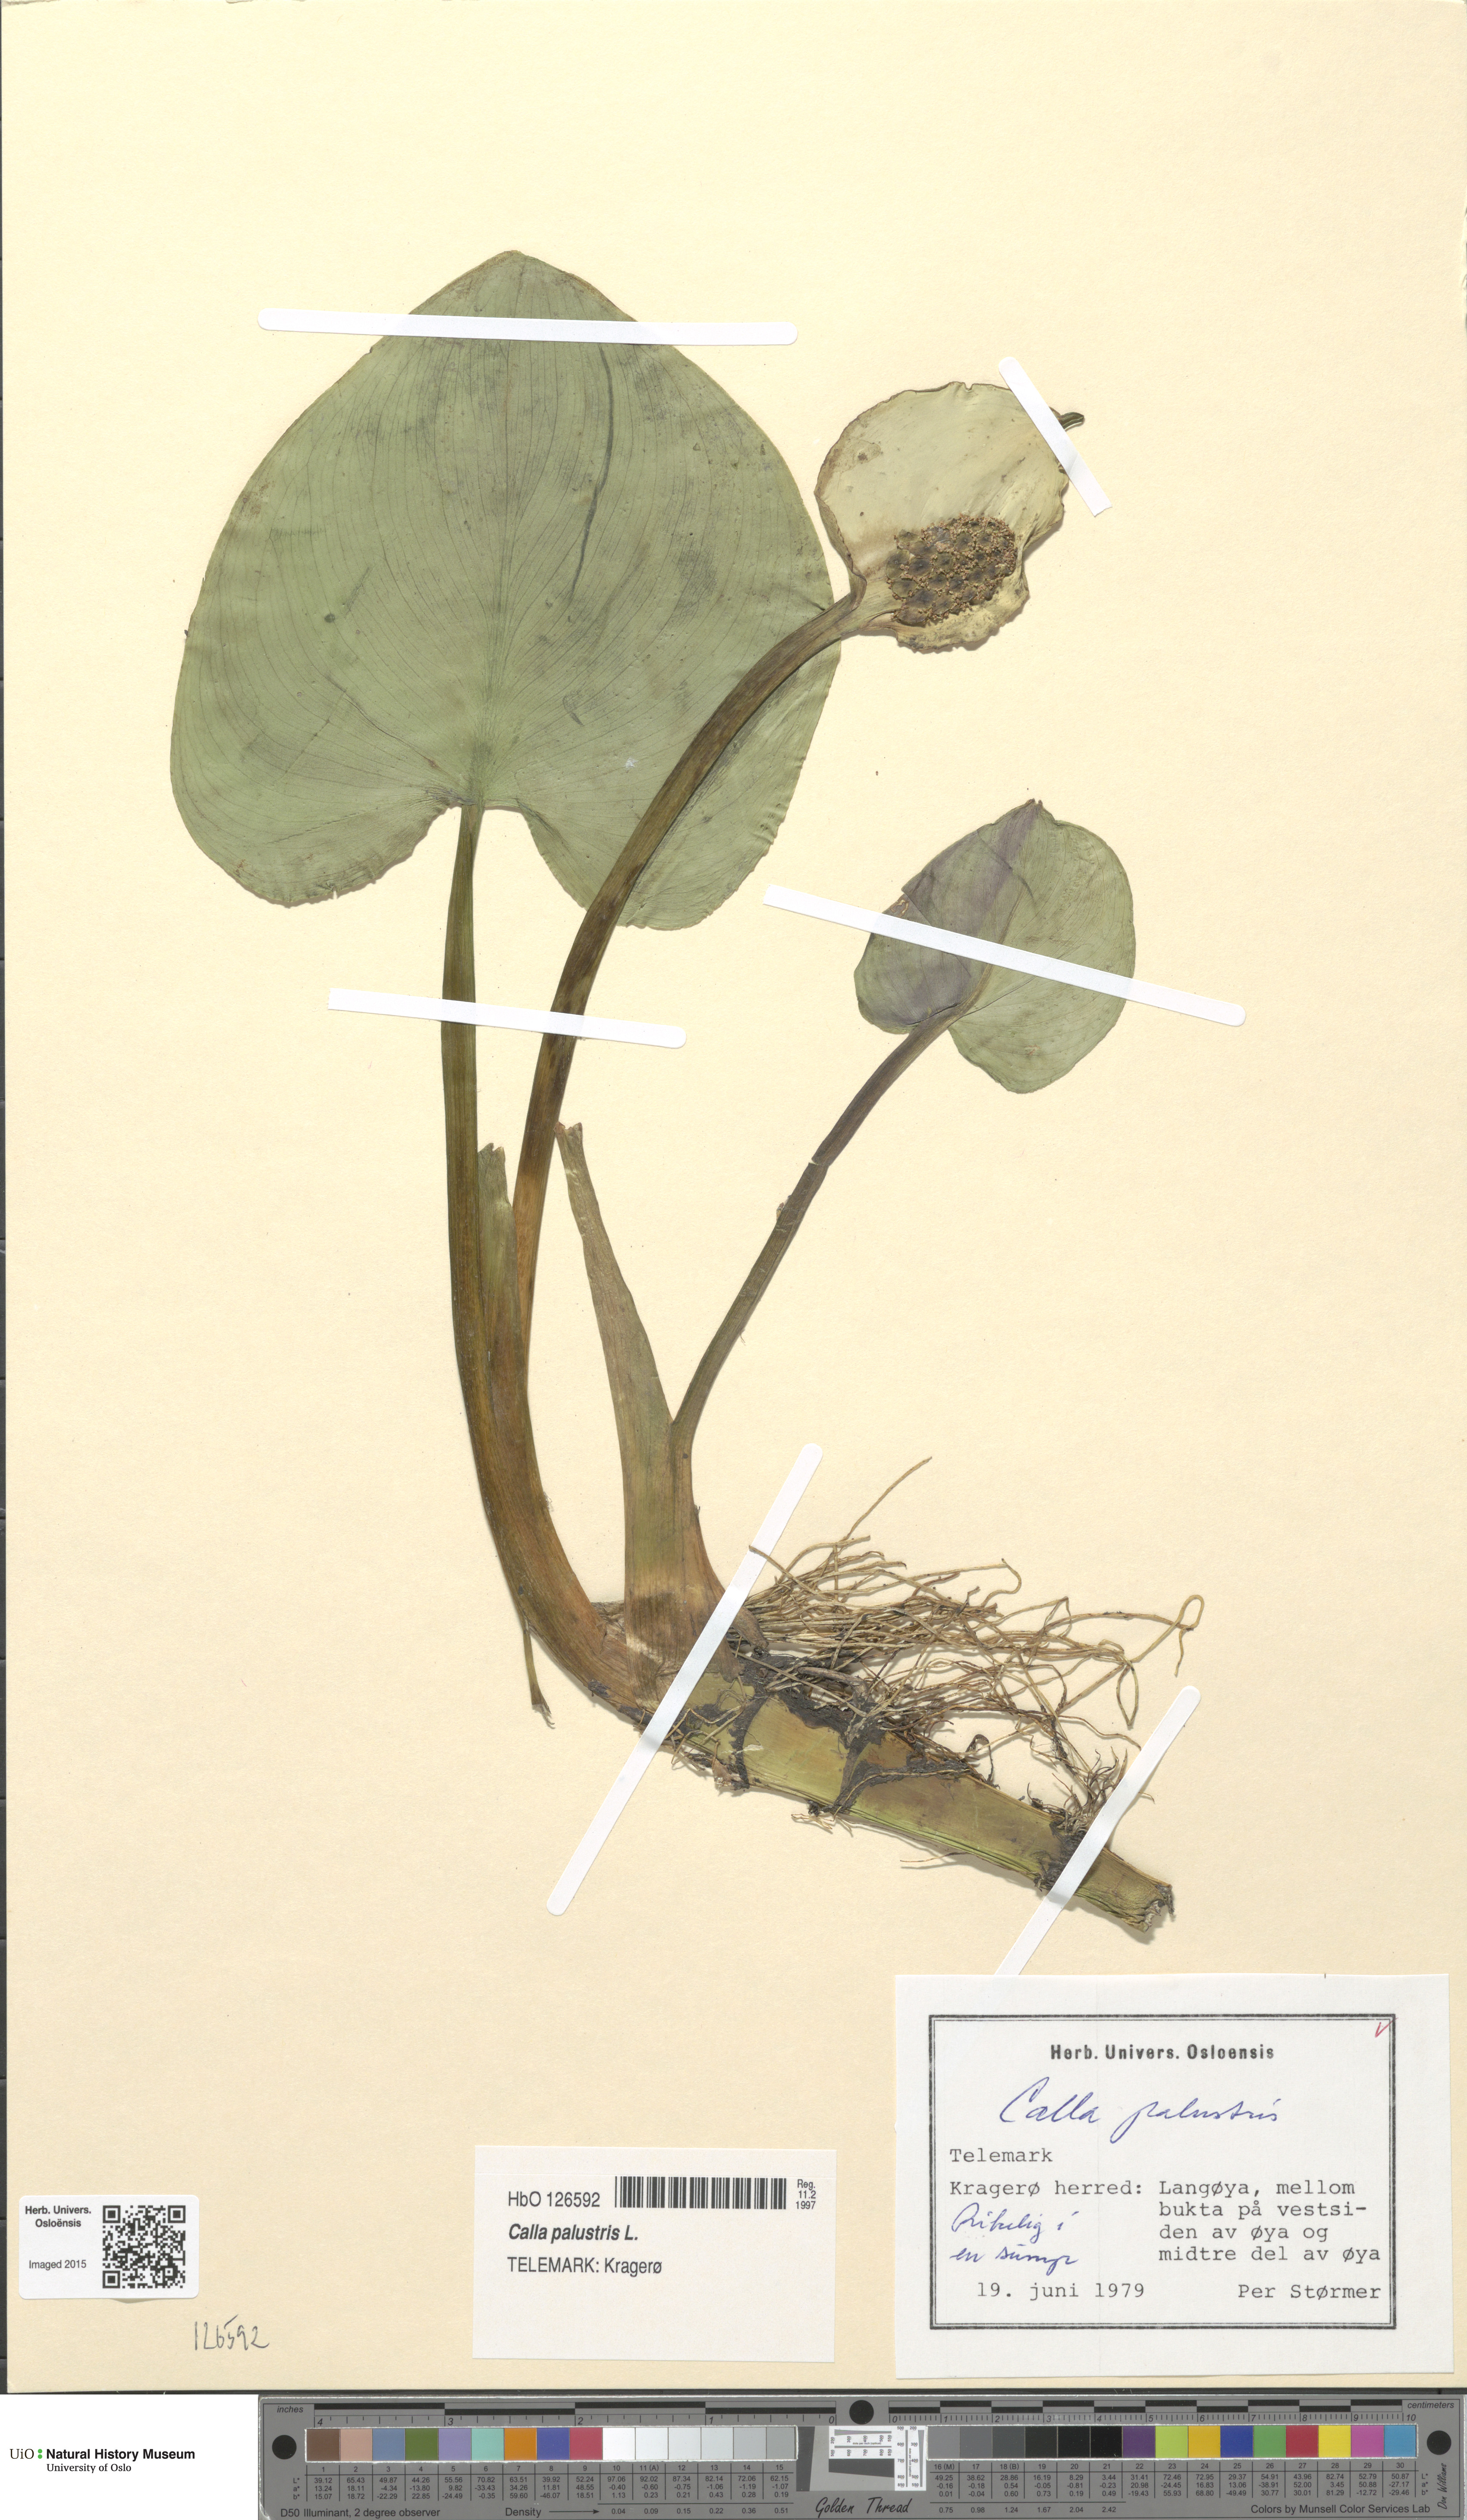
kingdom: Plantae
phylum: Tracheophyta
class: Liliopsida
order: Alismatales
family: Araceae
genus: Calla
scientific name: Calla palustris
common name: Bog arum
